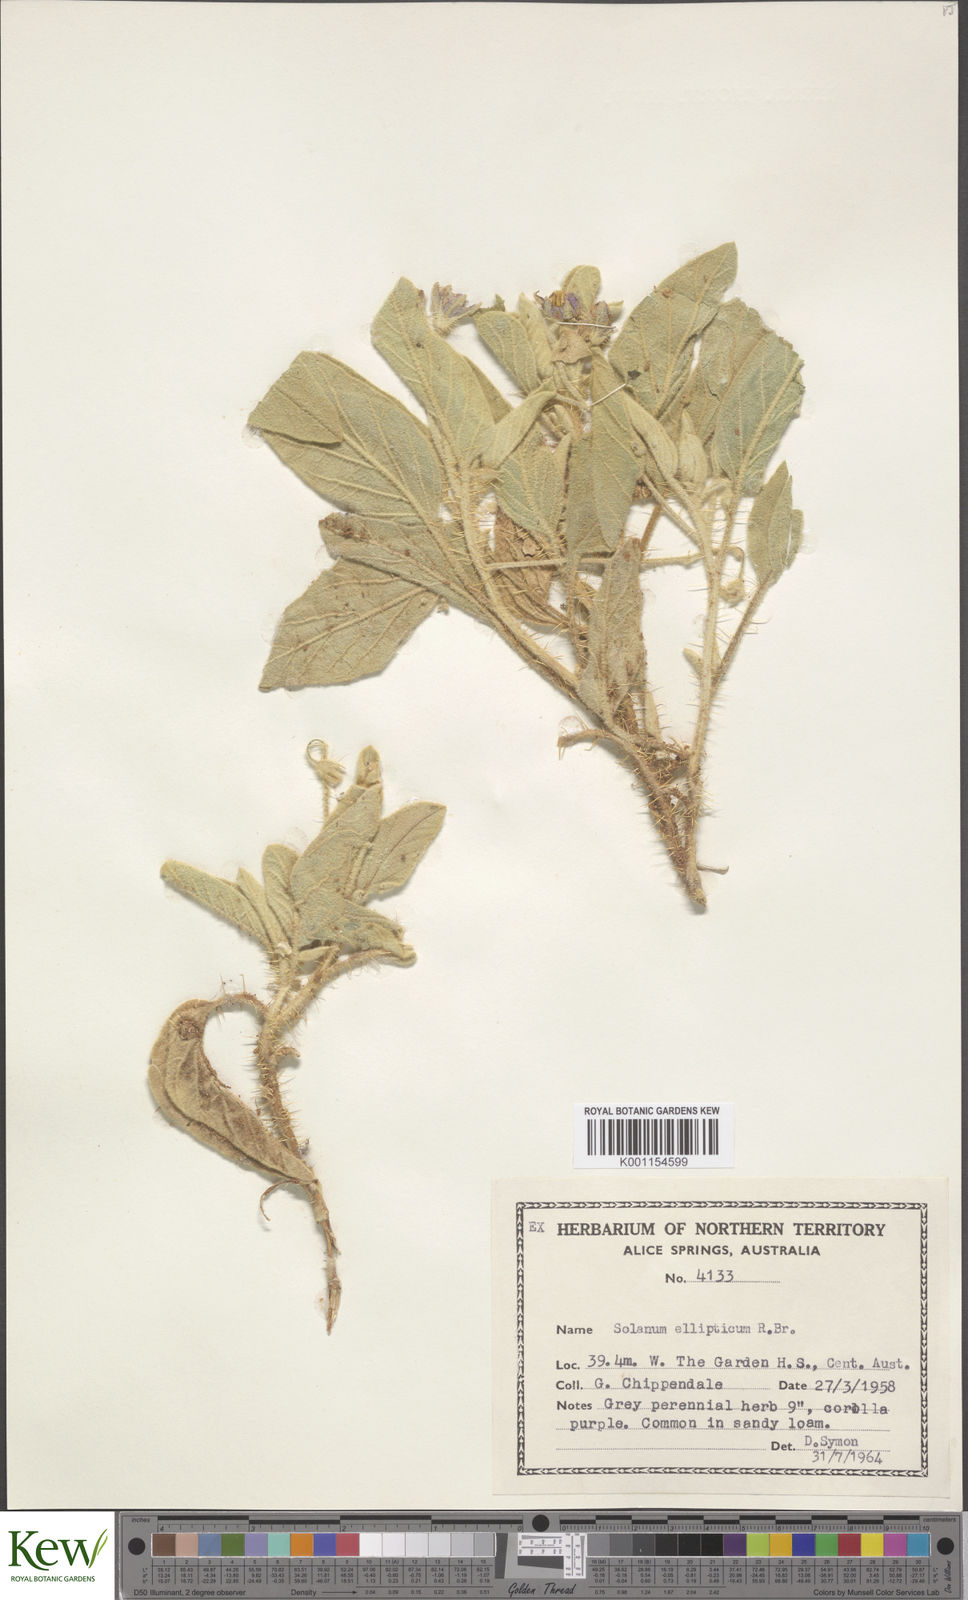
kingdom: Plantae
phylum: Tracheophyta
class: Magnoliopsida
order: Solanales
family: Solanaceae
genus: Solanum
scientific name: Solanum ellipticum
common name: Potato-bush
